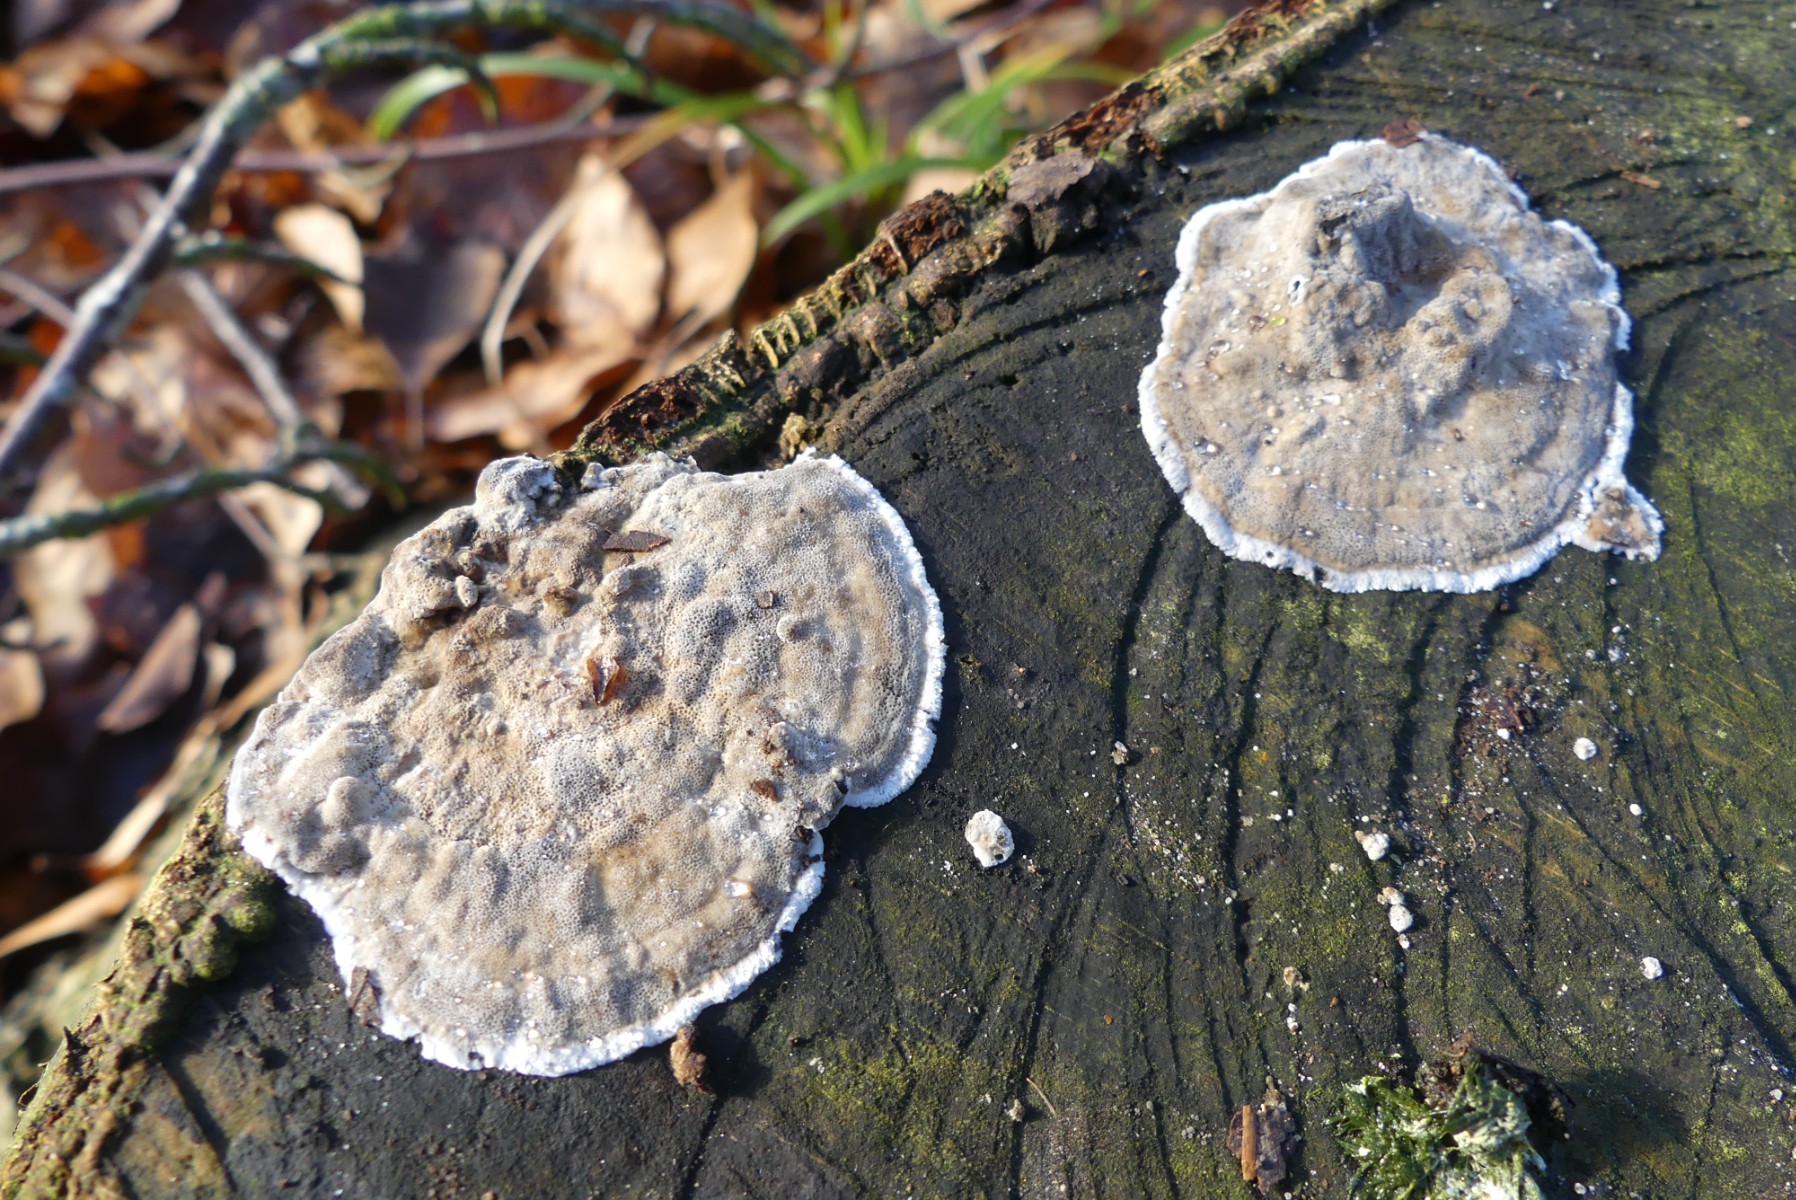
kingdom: Fungi
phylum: Basidiomycota
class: Agaricomycetes
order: Polyporales
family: Phanerochaetaceae
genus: Bjerkandera
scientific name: Bjerkandera adusta
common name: sveden sodporesvamp
